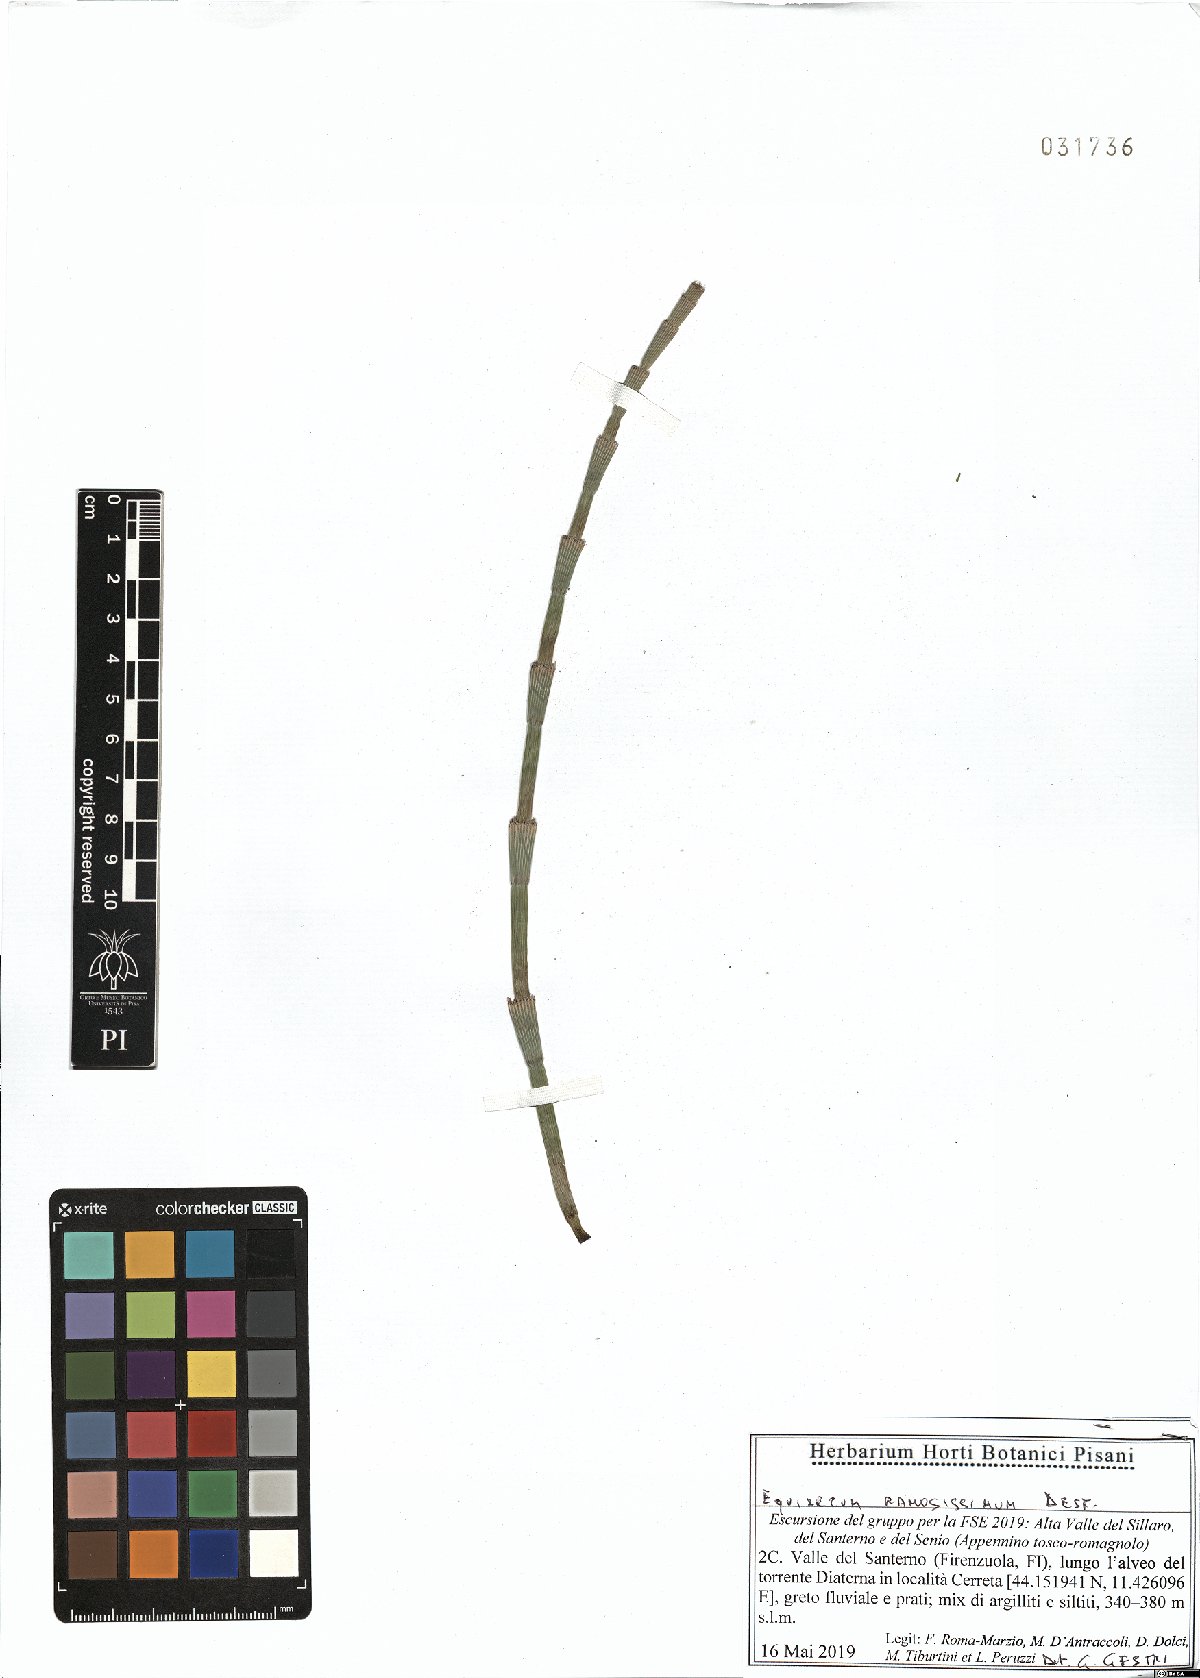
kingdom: Plantae
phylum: Tracheophyta
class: Polypodiopsida
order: Equisetales
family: Equisetaceae
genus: Equisetum
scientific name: Equisetum ramosissimum
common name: Branched horsetail
